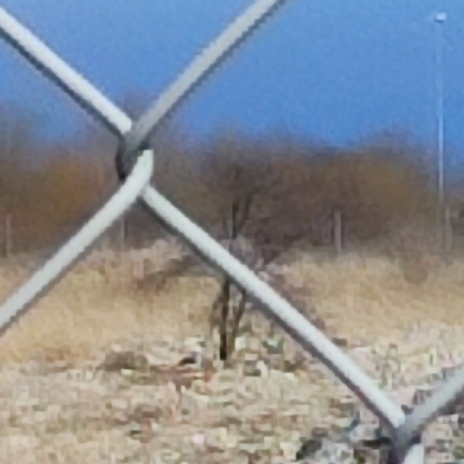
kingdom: Animalia
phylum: Chordata
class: Aves
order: Charadriiformes
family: Burhinidae
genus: Burhinus
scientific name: Burhinus oedicnemus
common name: Triel
